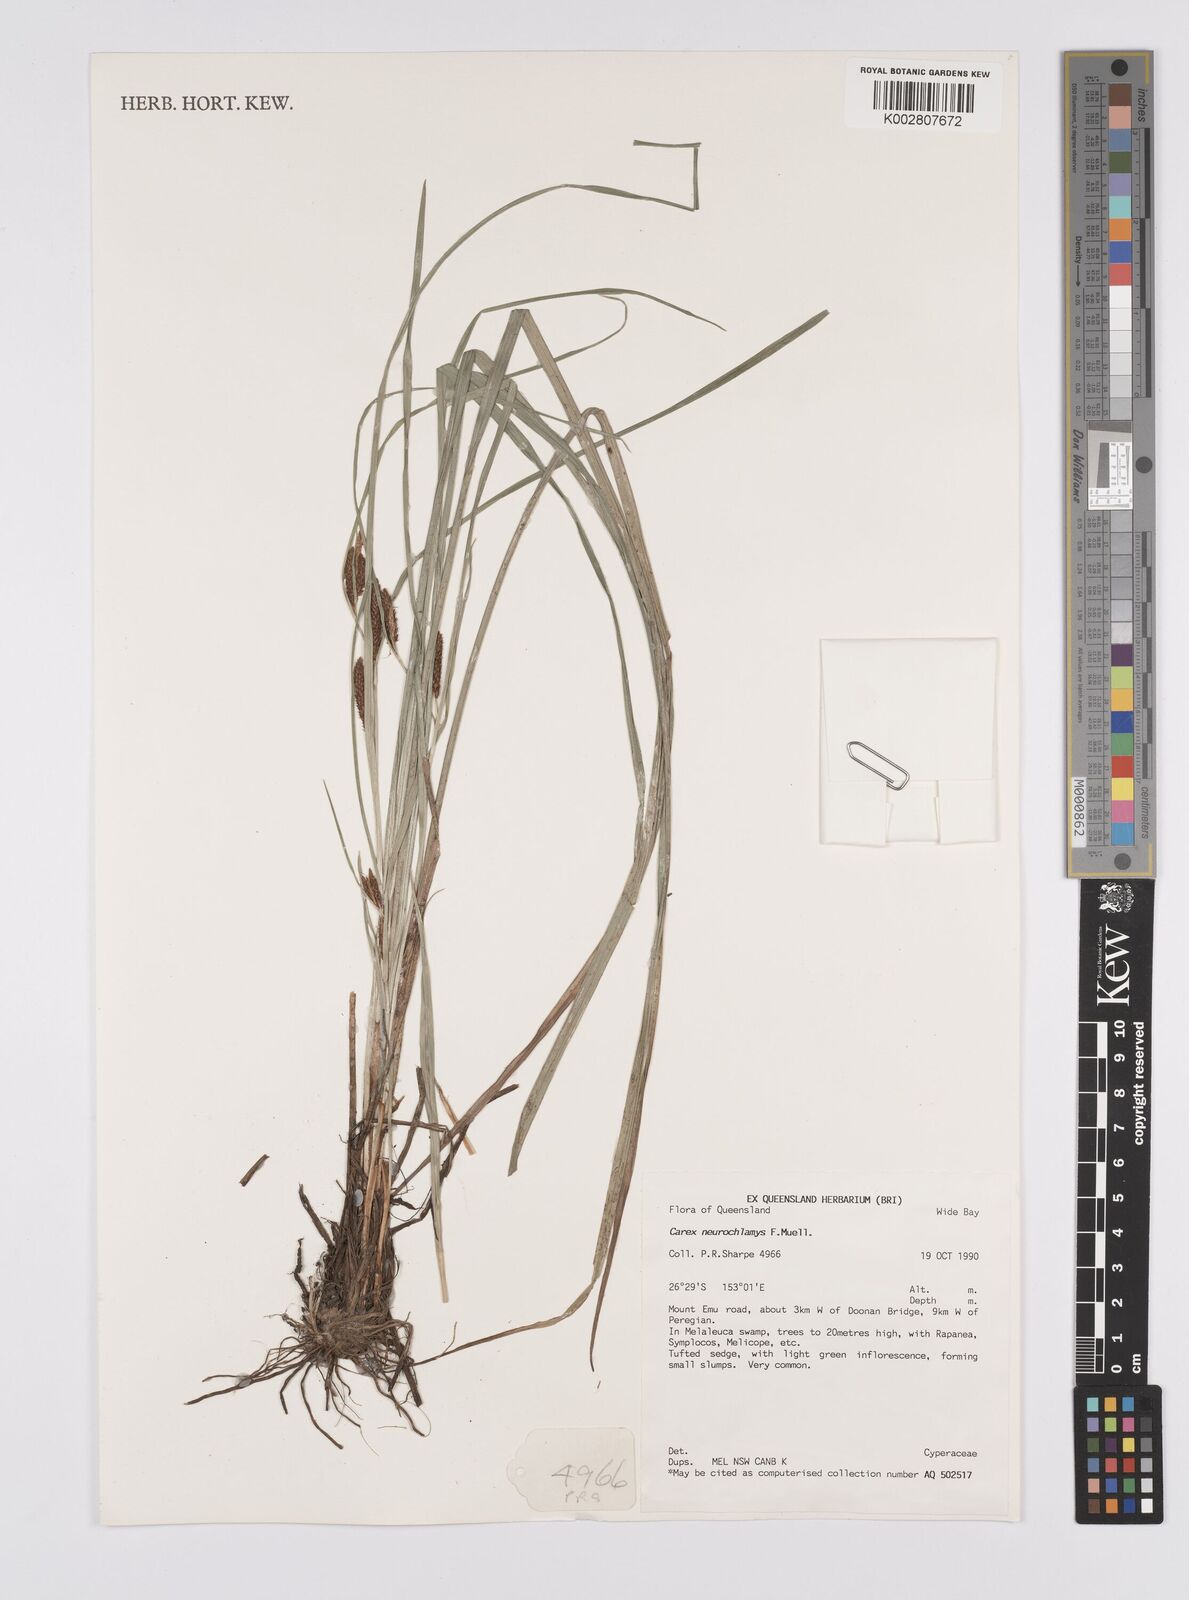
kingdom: Plantae
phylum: Tracheophyta
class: Liliopsida
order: Poales
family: Cyperaceae
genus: Carex
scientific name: Carex maculata
